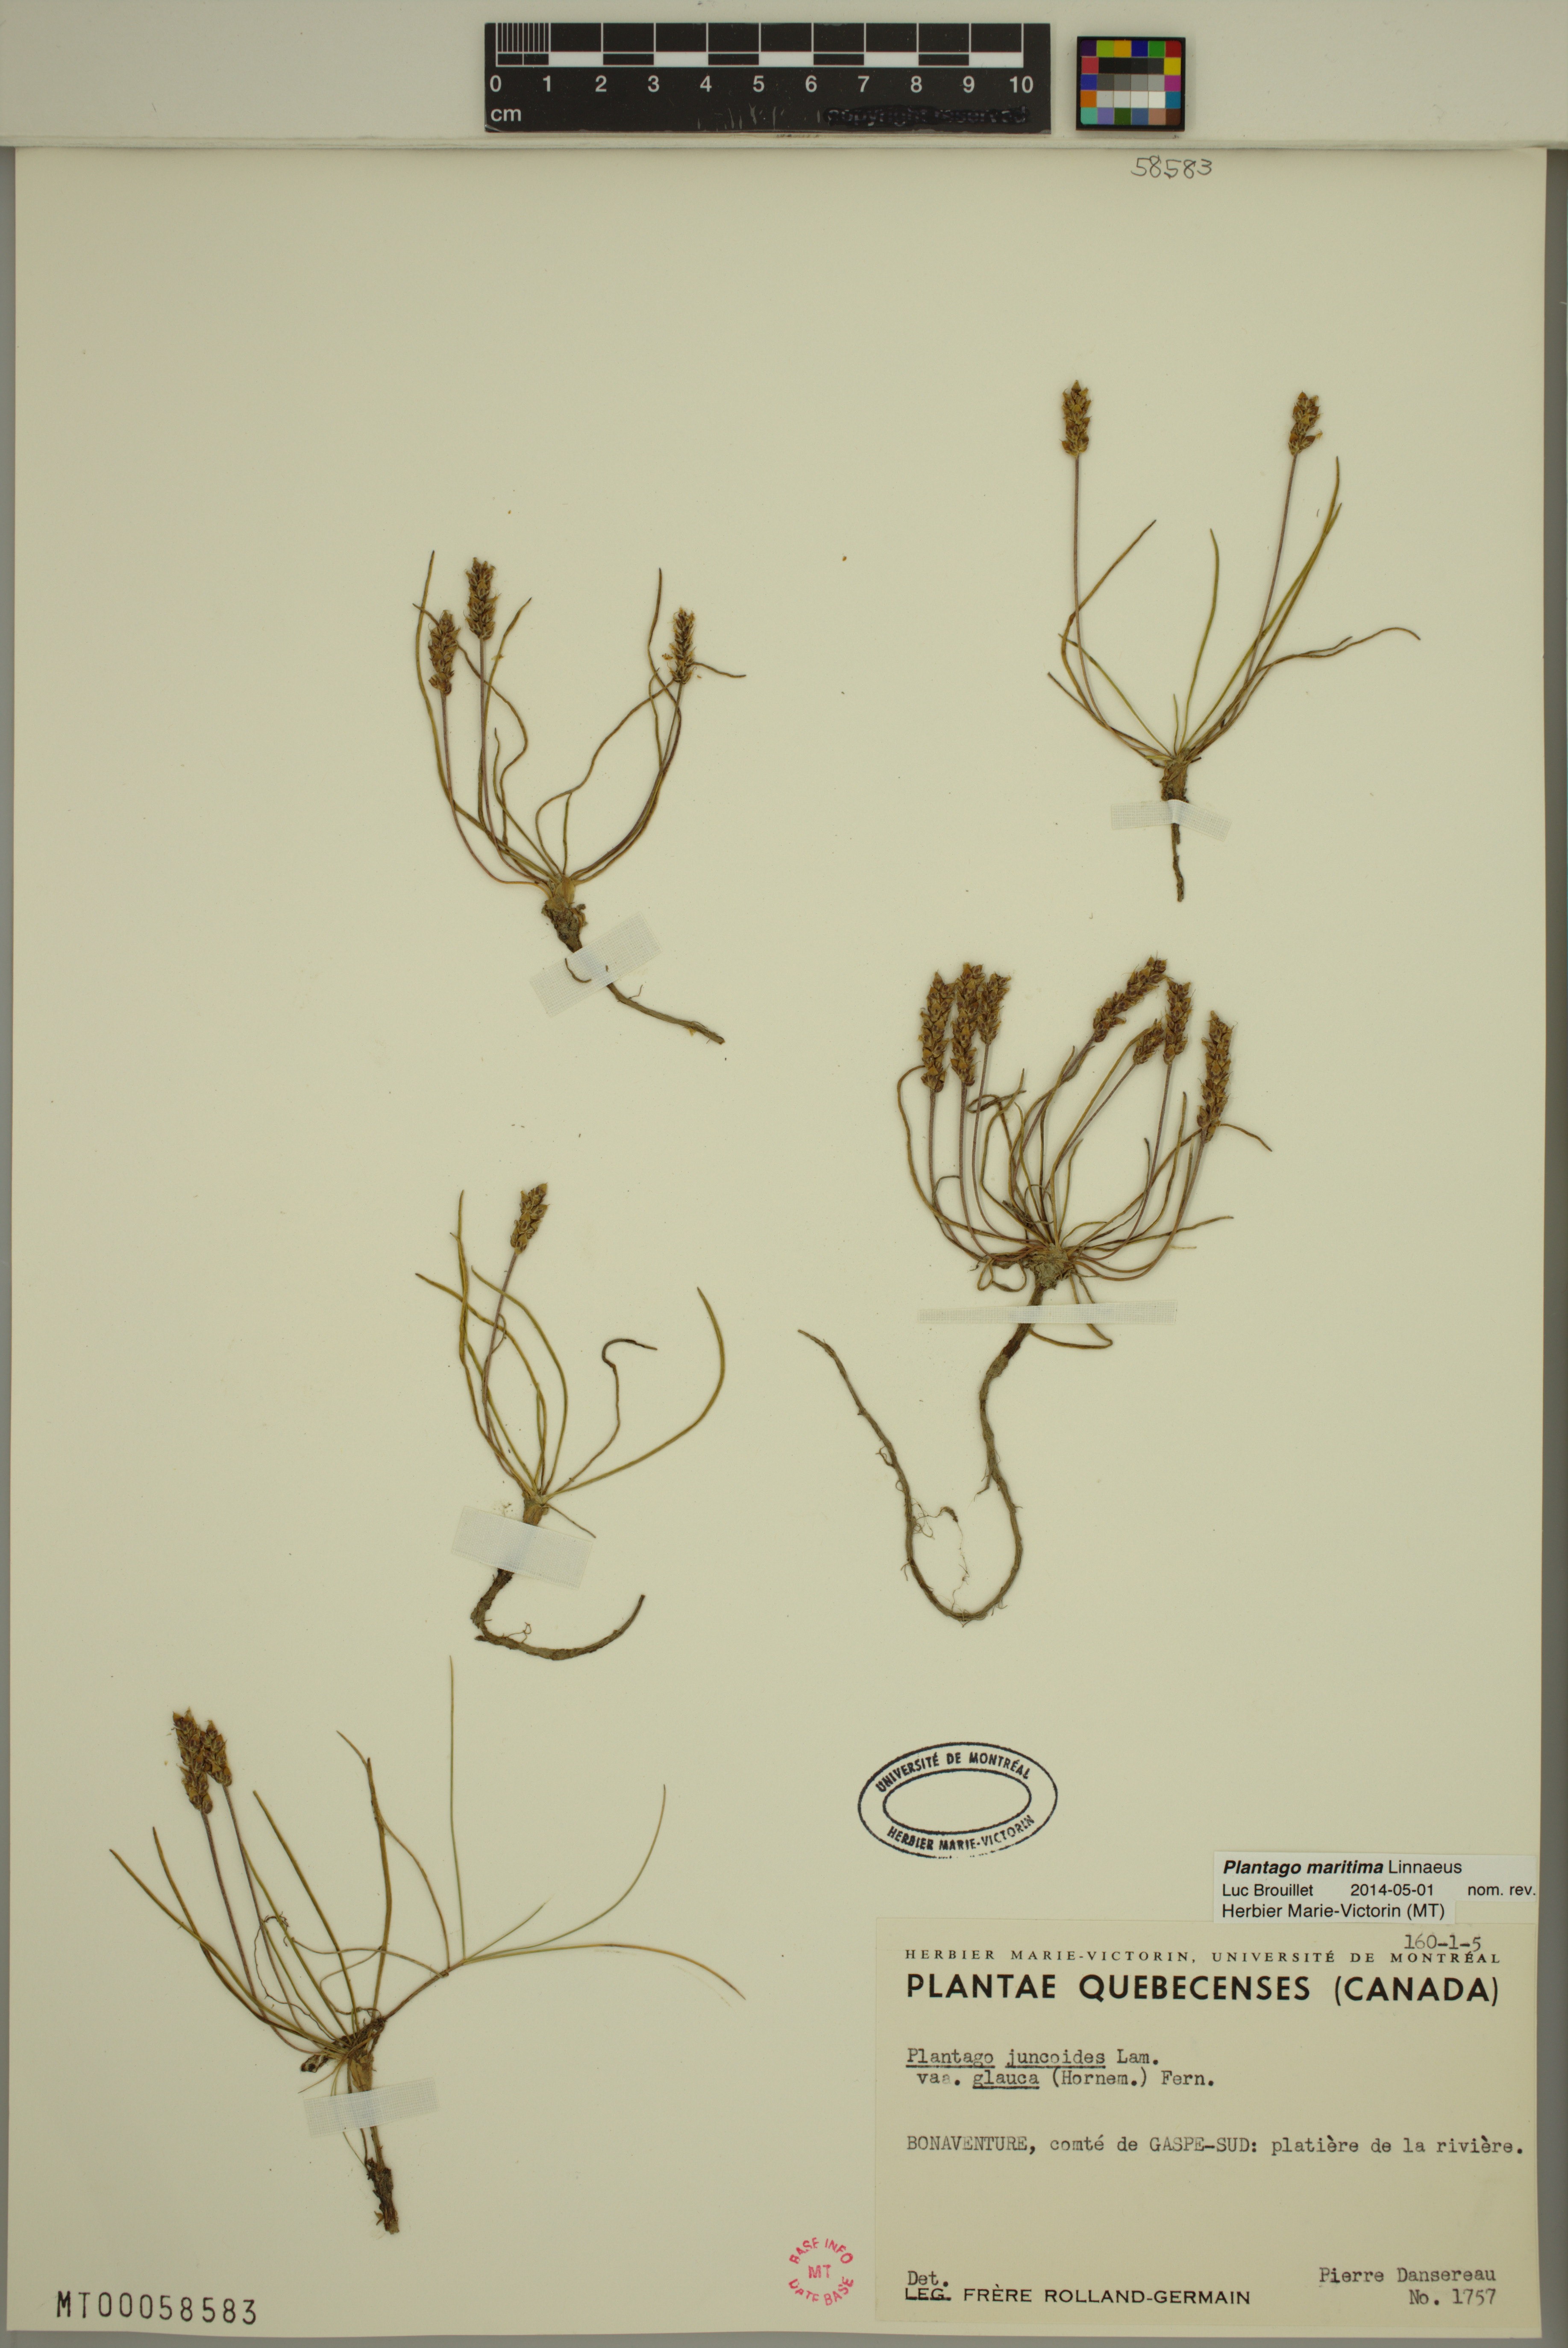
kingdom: Plantae
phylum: Tracheophyta
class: Magnoliopsida
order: Lamiales
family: Plantaginaceae
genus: Plantago
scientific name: Plantago maritima
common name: Sea plantain
